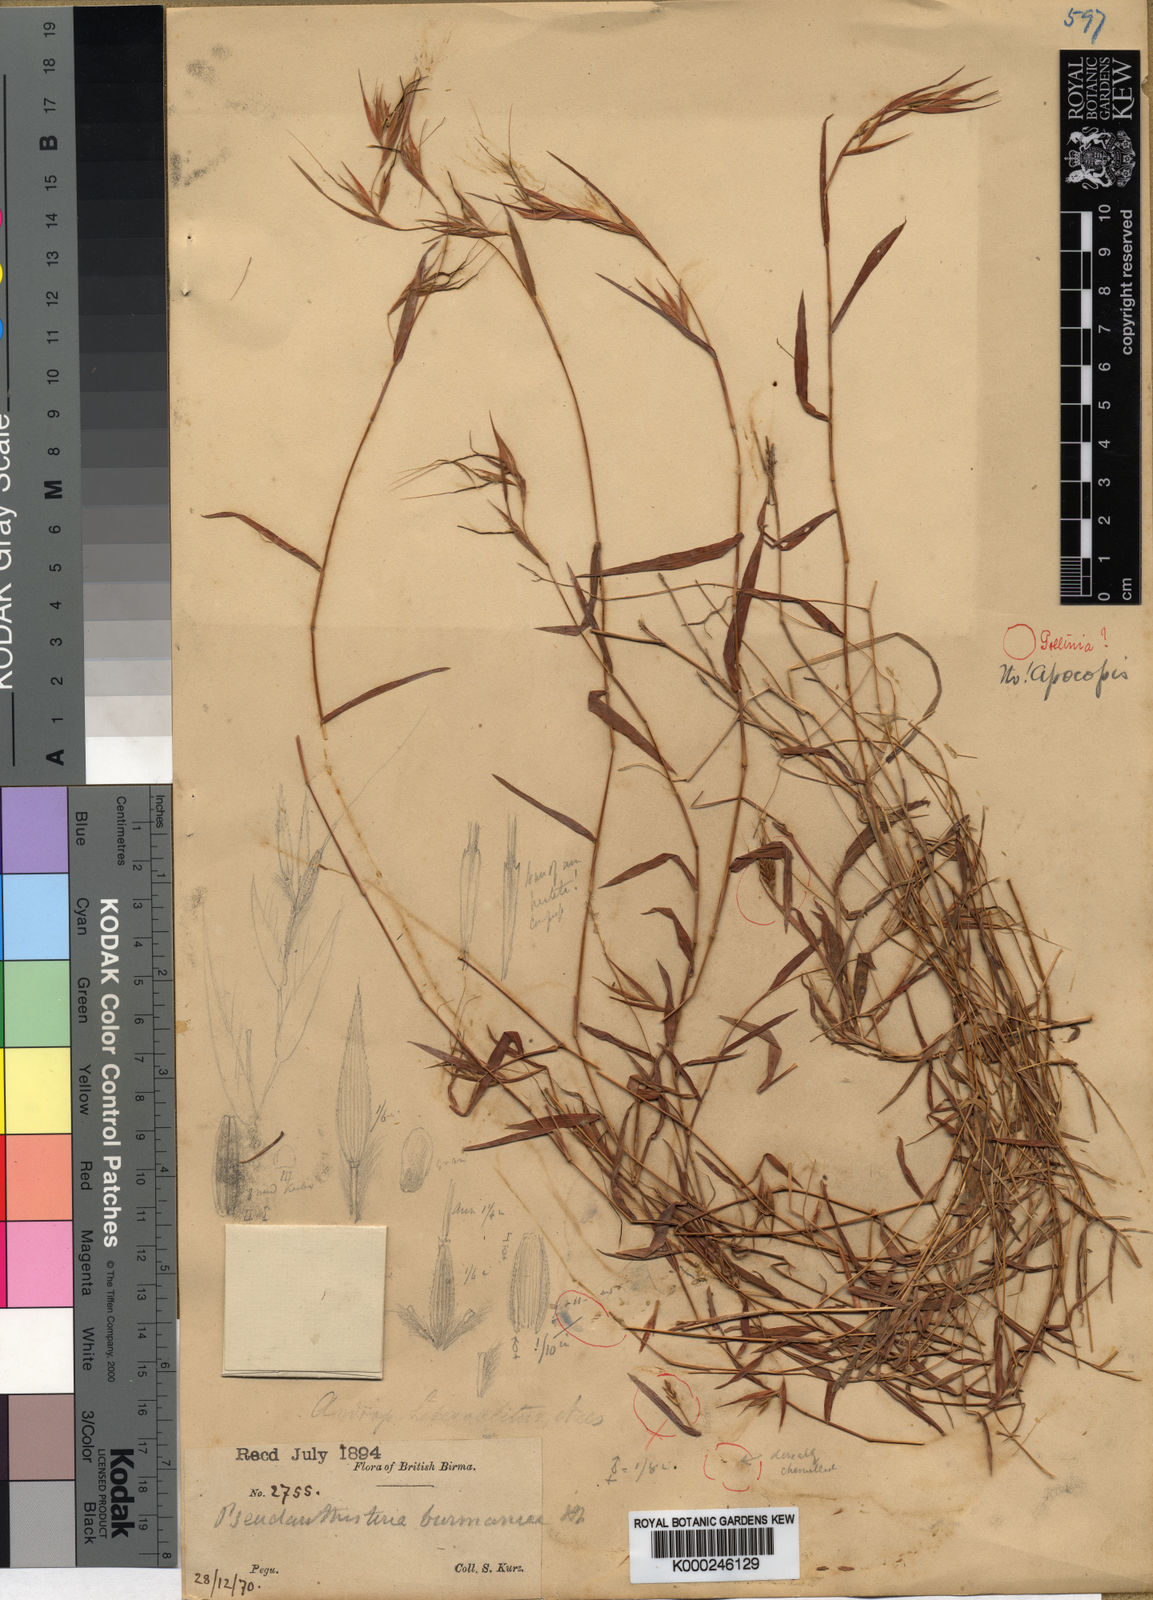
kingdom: Plantae
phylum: Tracheophyta
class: Liliopsida
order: Poales
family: Poaceae
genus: Pseudanthistiria
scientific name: Pseudanthistiria umbellata
